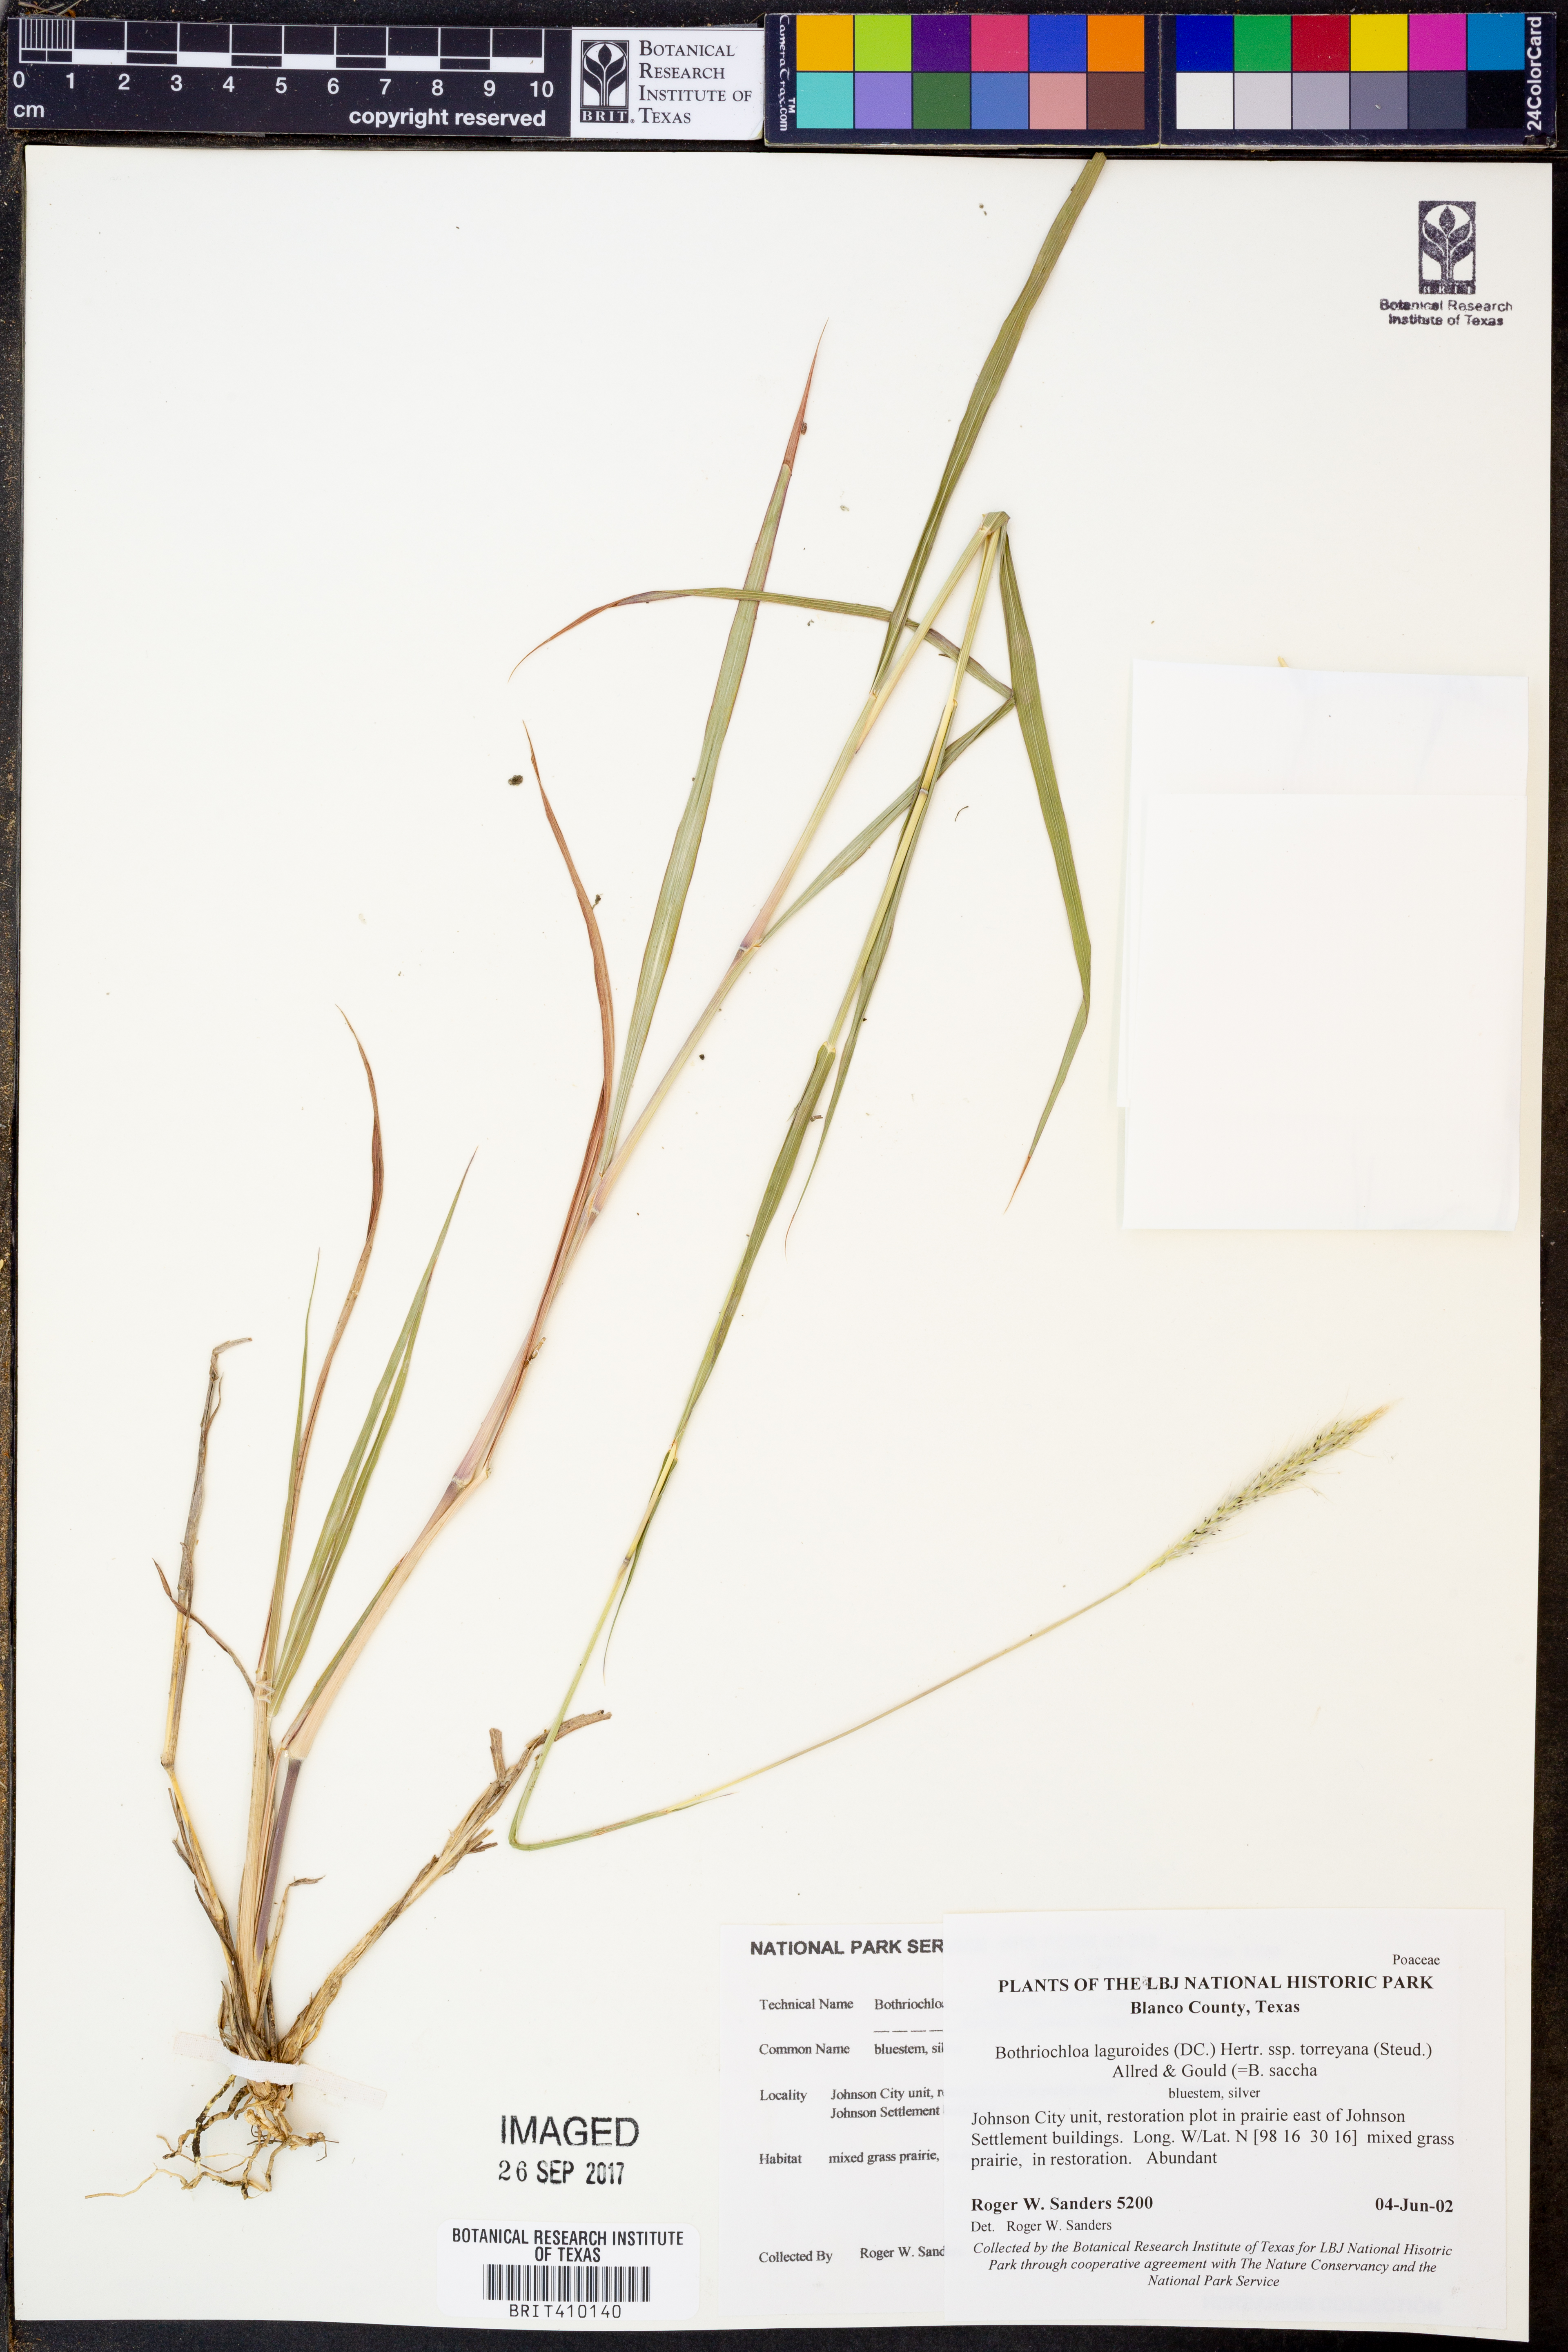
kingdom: Plantae
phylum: Tracheophyta
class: Liliopsida
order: Poales
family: Poaceae
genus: Bothriochloa
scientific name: Bothriochloa torreyana
